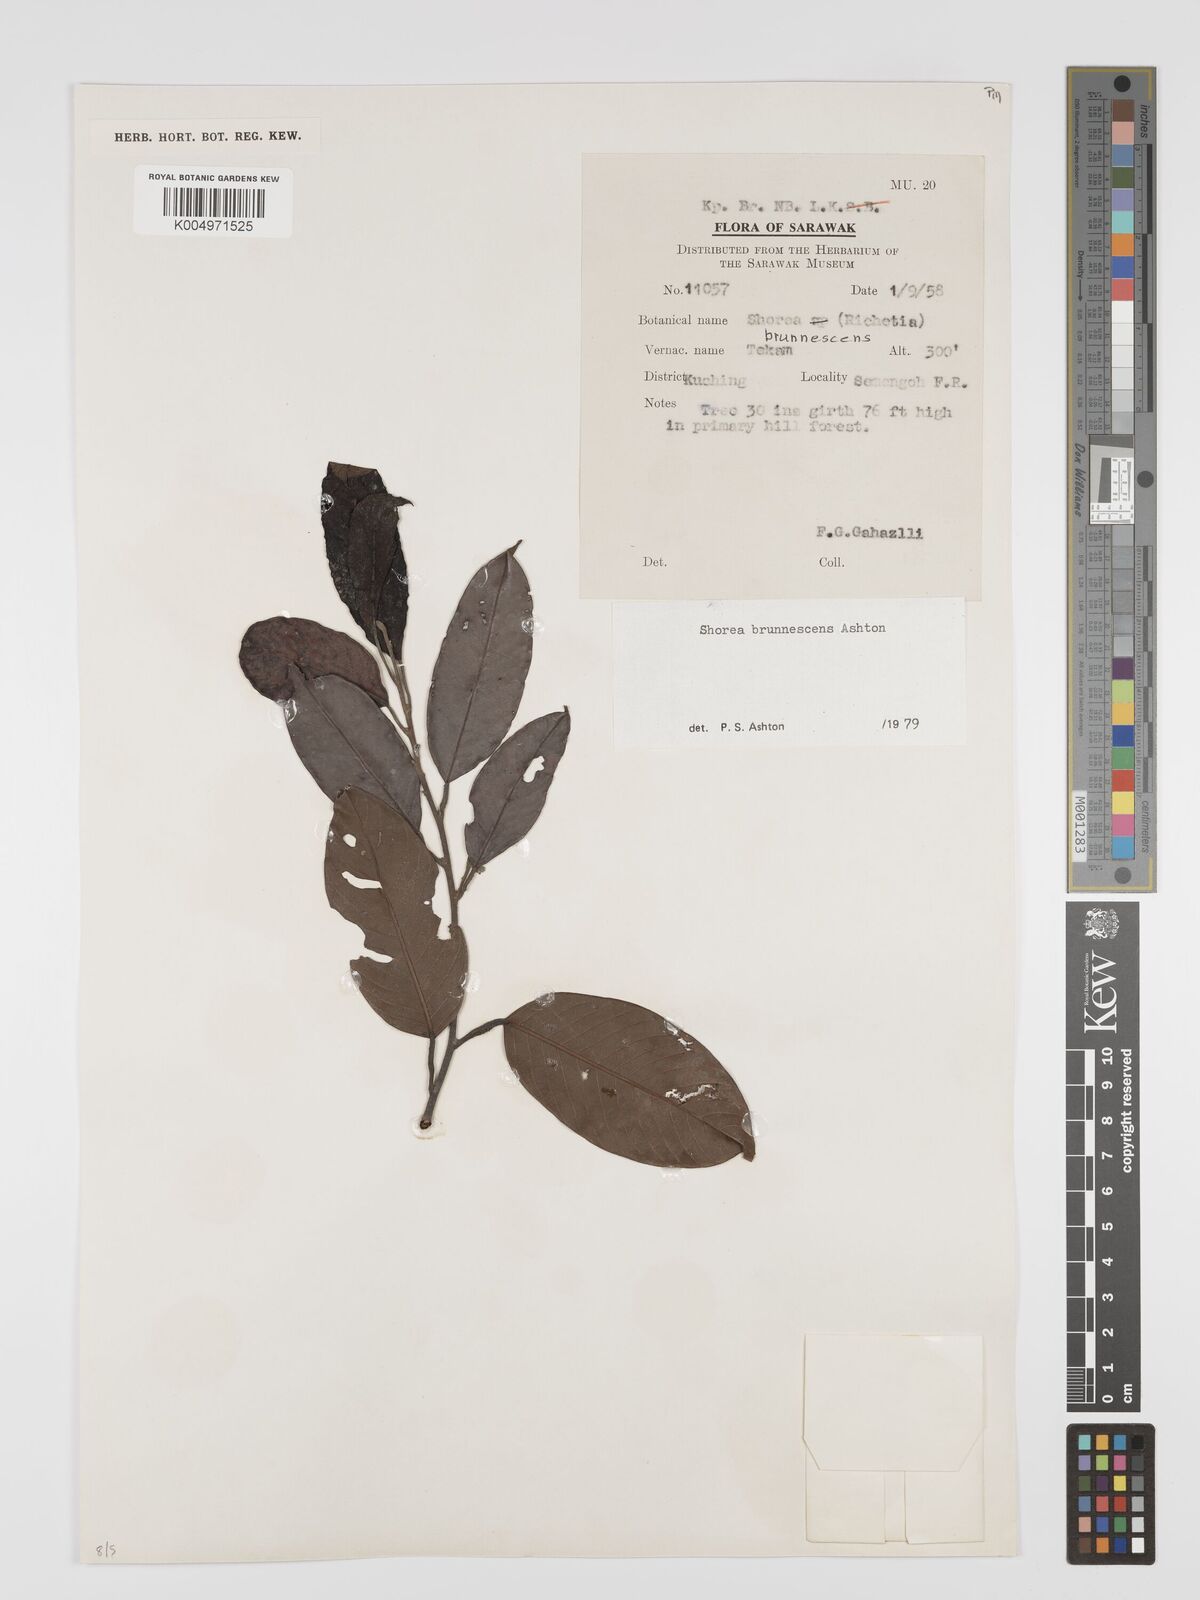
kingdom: Plantae
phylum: Tracheophyta
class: Magnoliopsida
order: Malvales
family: Dipterocarpaceae
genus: Shorea
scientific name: Shorea brunnescens
